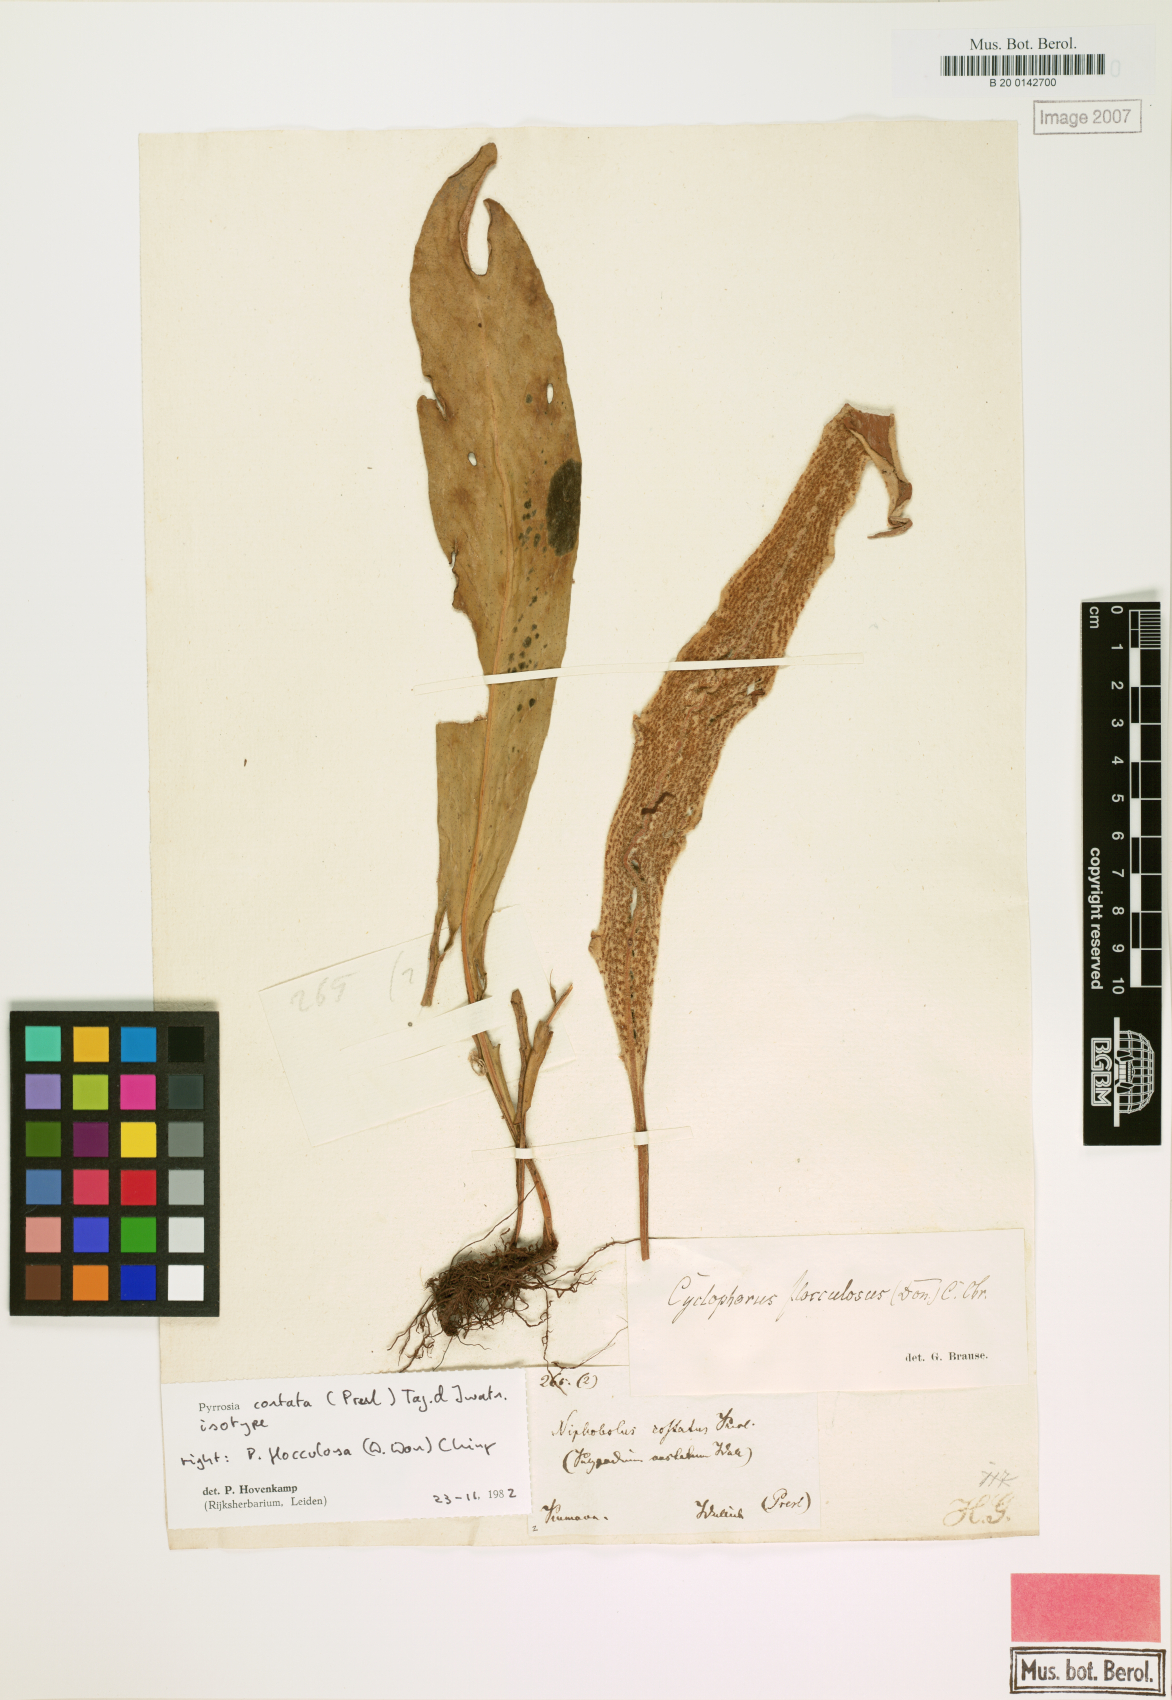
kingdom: Plantae
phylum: Tracheophyta
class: Polypodiopsida
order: Polypodiales
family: Polypodiaceae
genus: Pyrrosia
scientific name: Pyrrosia costata
